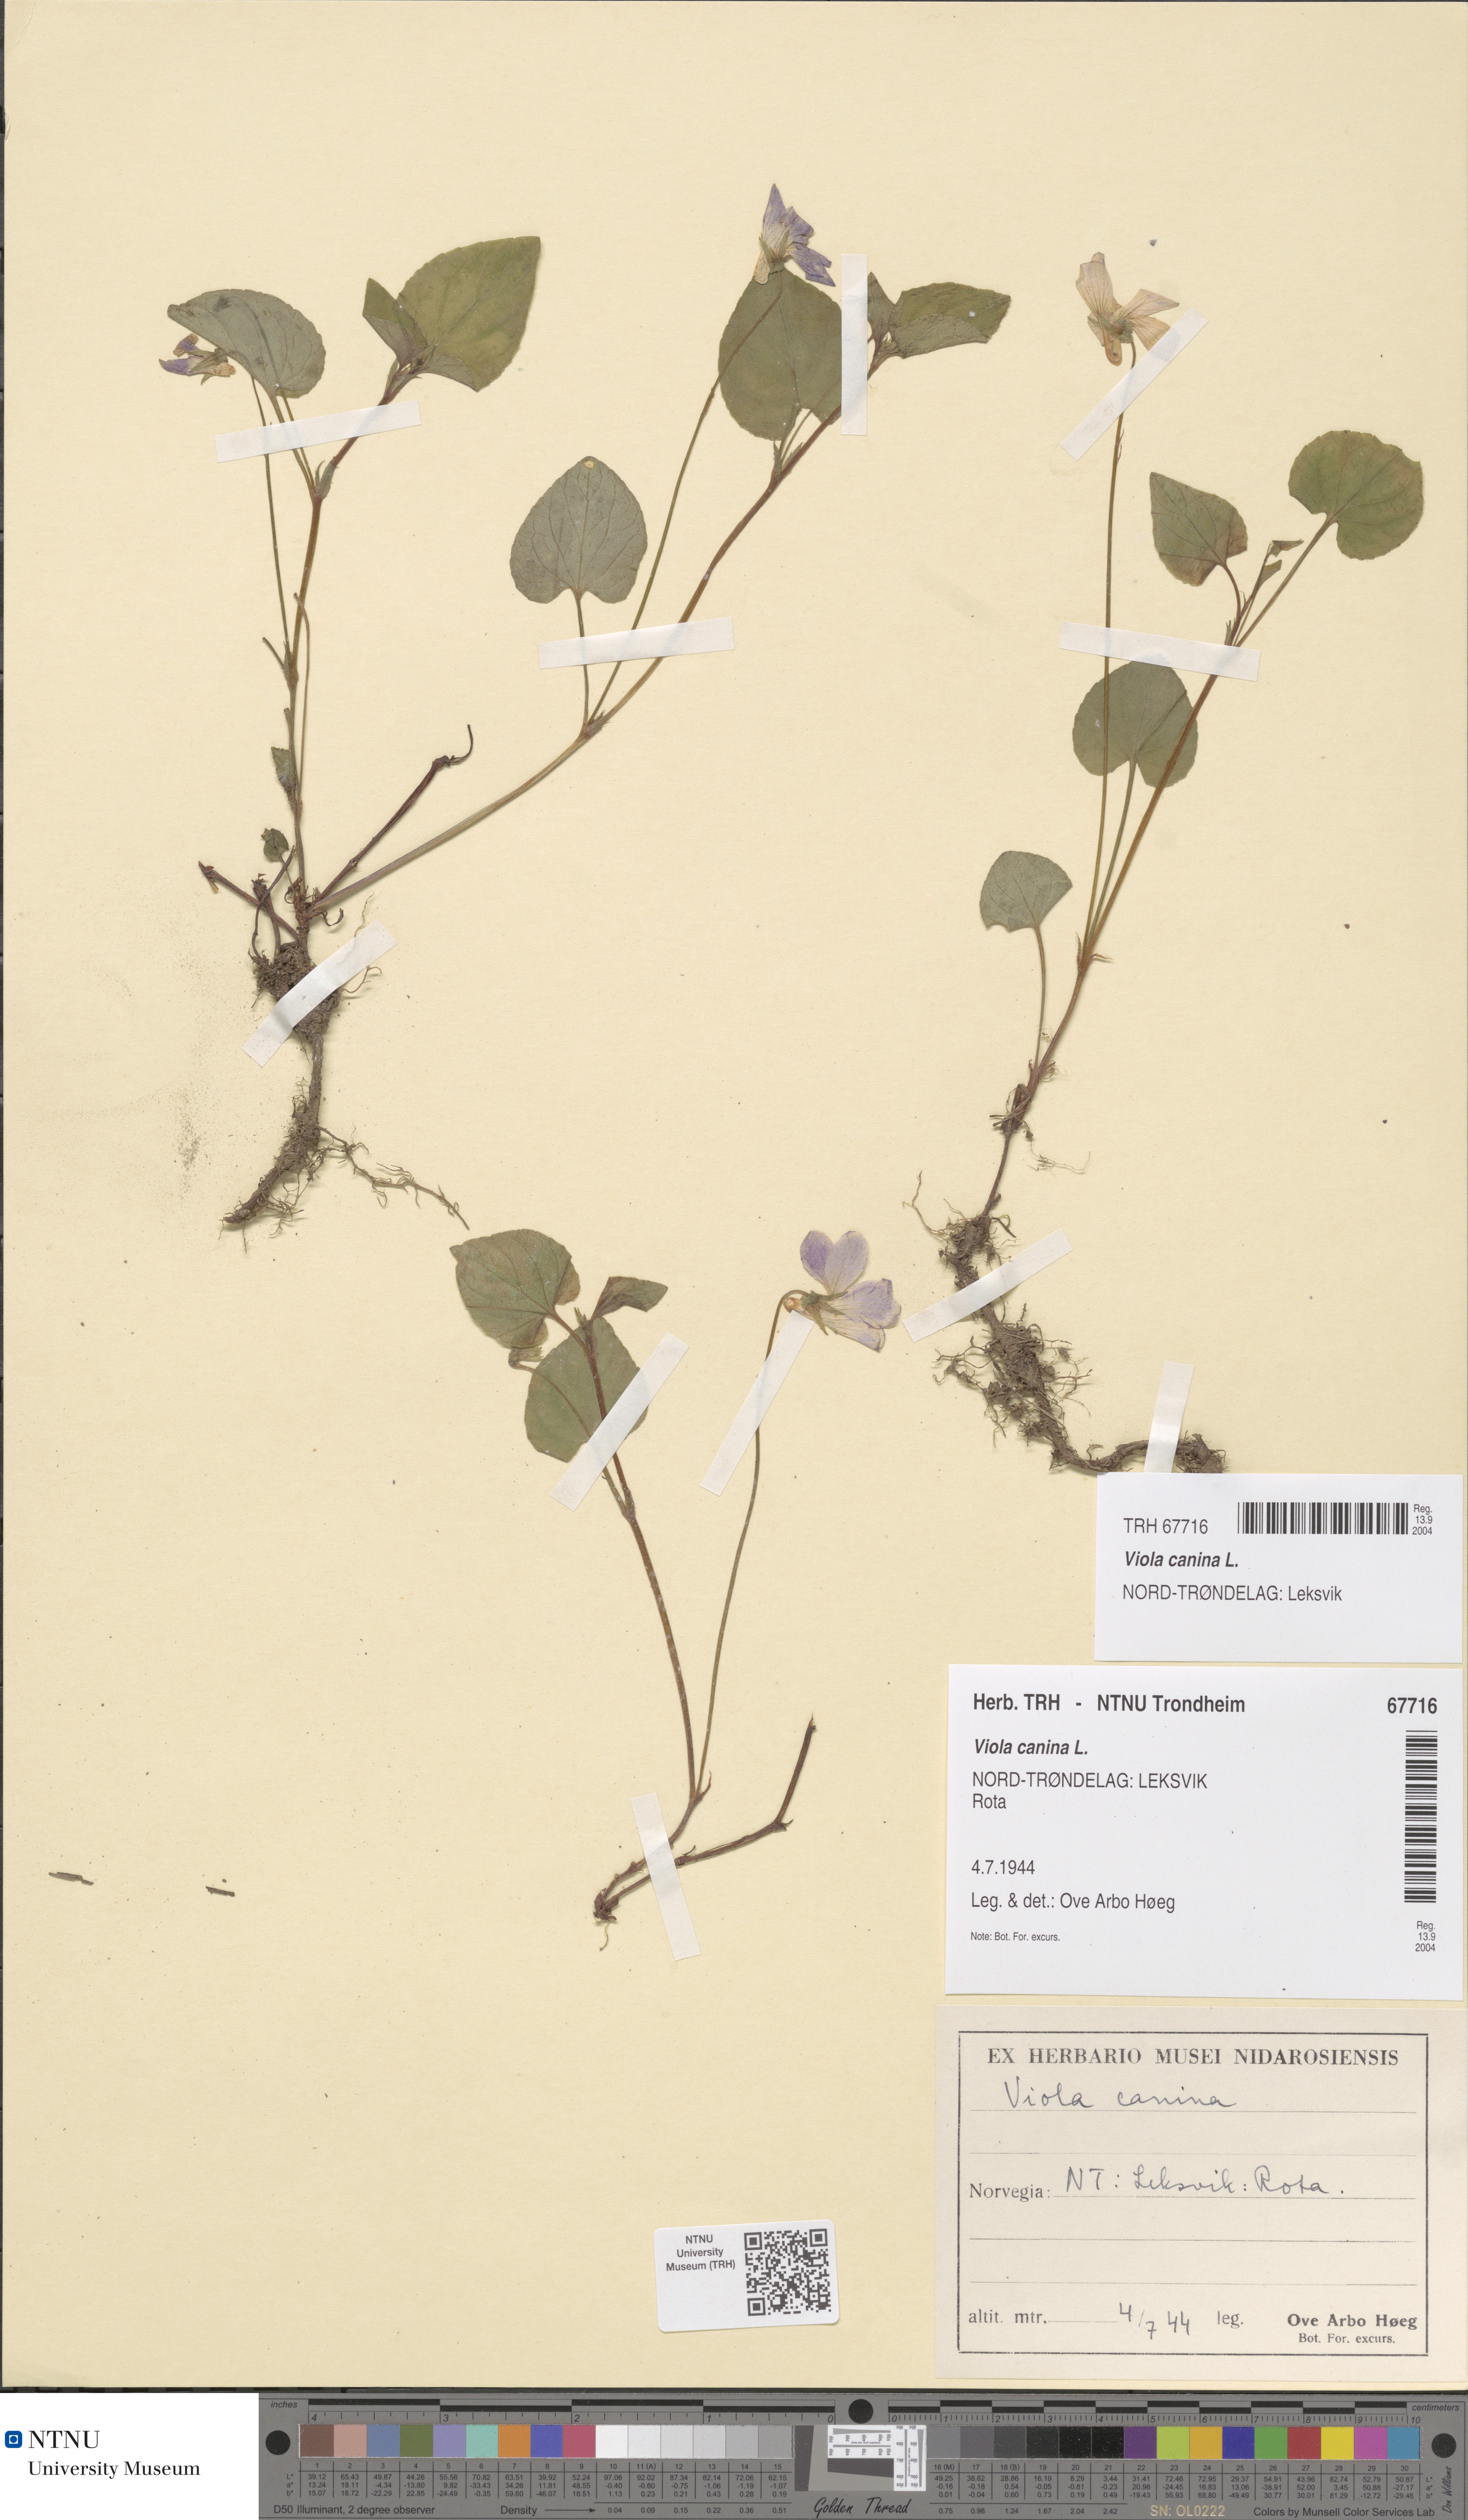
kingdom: Plantae
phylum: Tracheophyta
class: Magnoliopsida
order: Malpighiales
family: Violaceae
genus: Viola
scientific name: Viola canina
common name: Heath dog-violet
